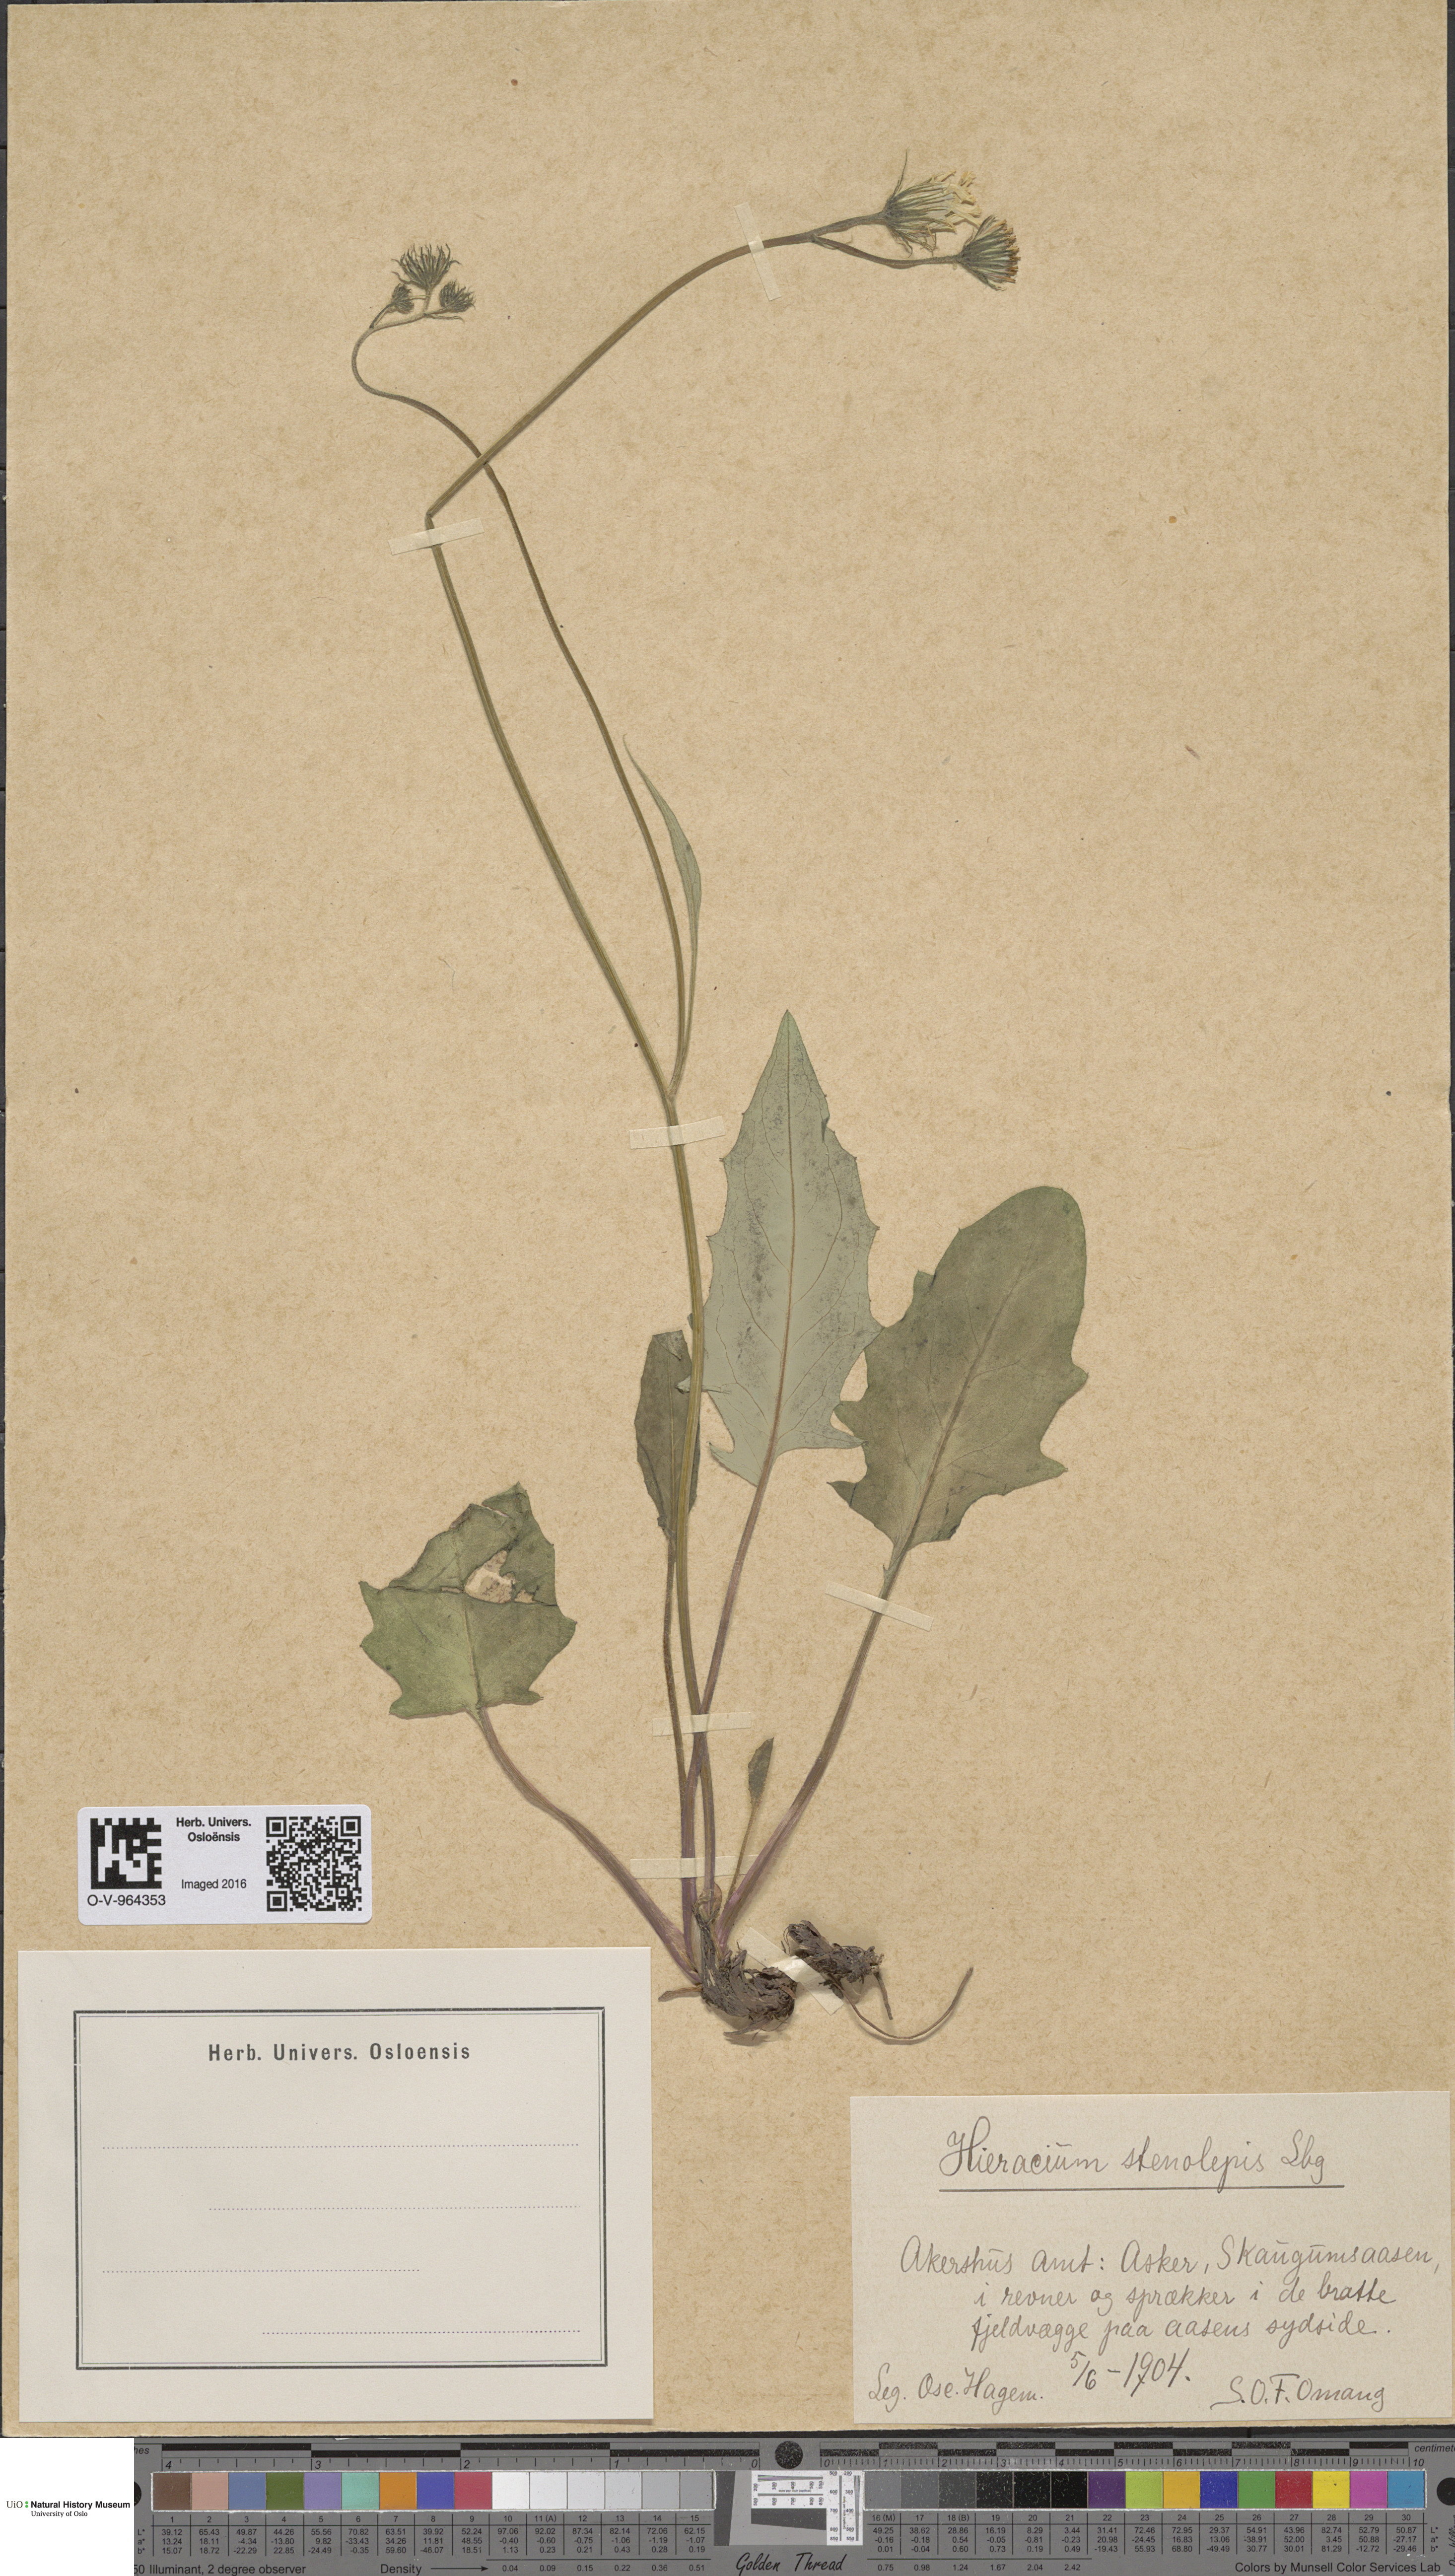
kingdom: Plantae
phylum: Tracheophyta
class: Magnoliopsida
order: Asterales
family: Asteraceae
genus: Hieracium
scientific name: Hieracium bifidum
